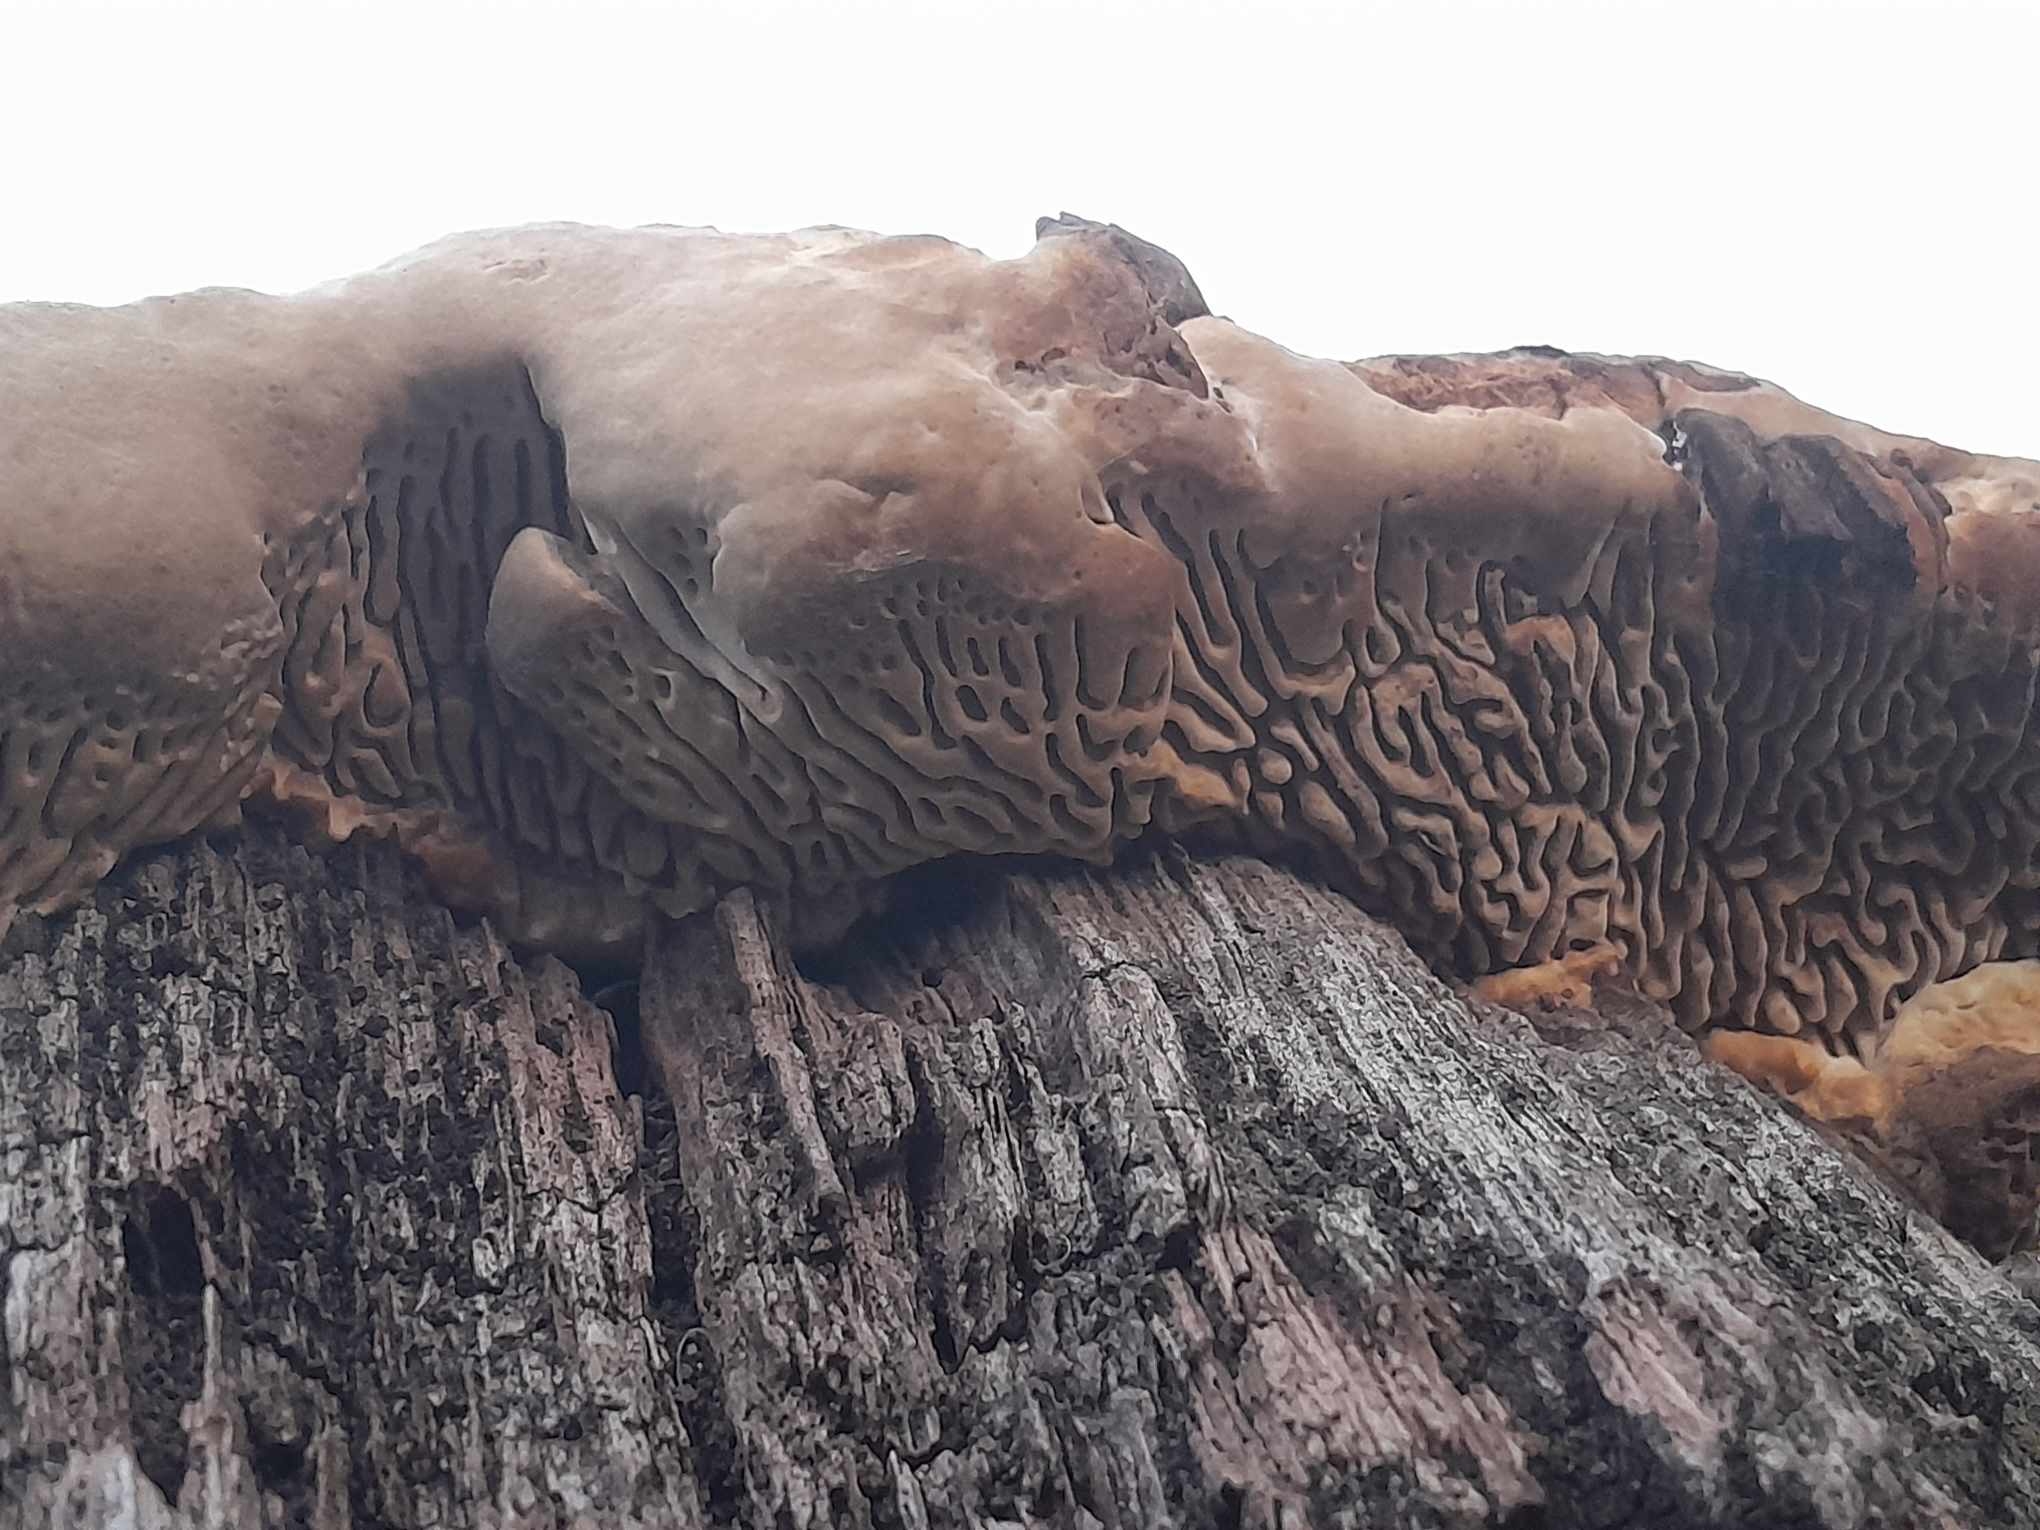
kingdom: Fungi
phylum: Basidiomycota
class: Agaricomycetes
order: Polyporales
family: Fomitopsidaceae
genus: Daedalea
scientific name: Daedalea quercina
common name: ege-labyrintsvamp
